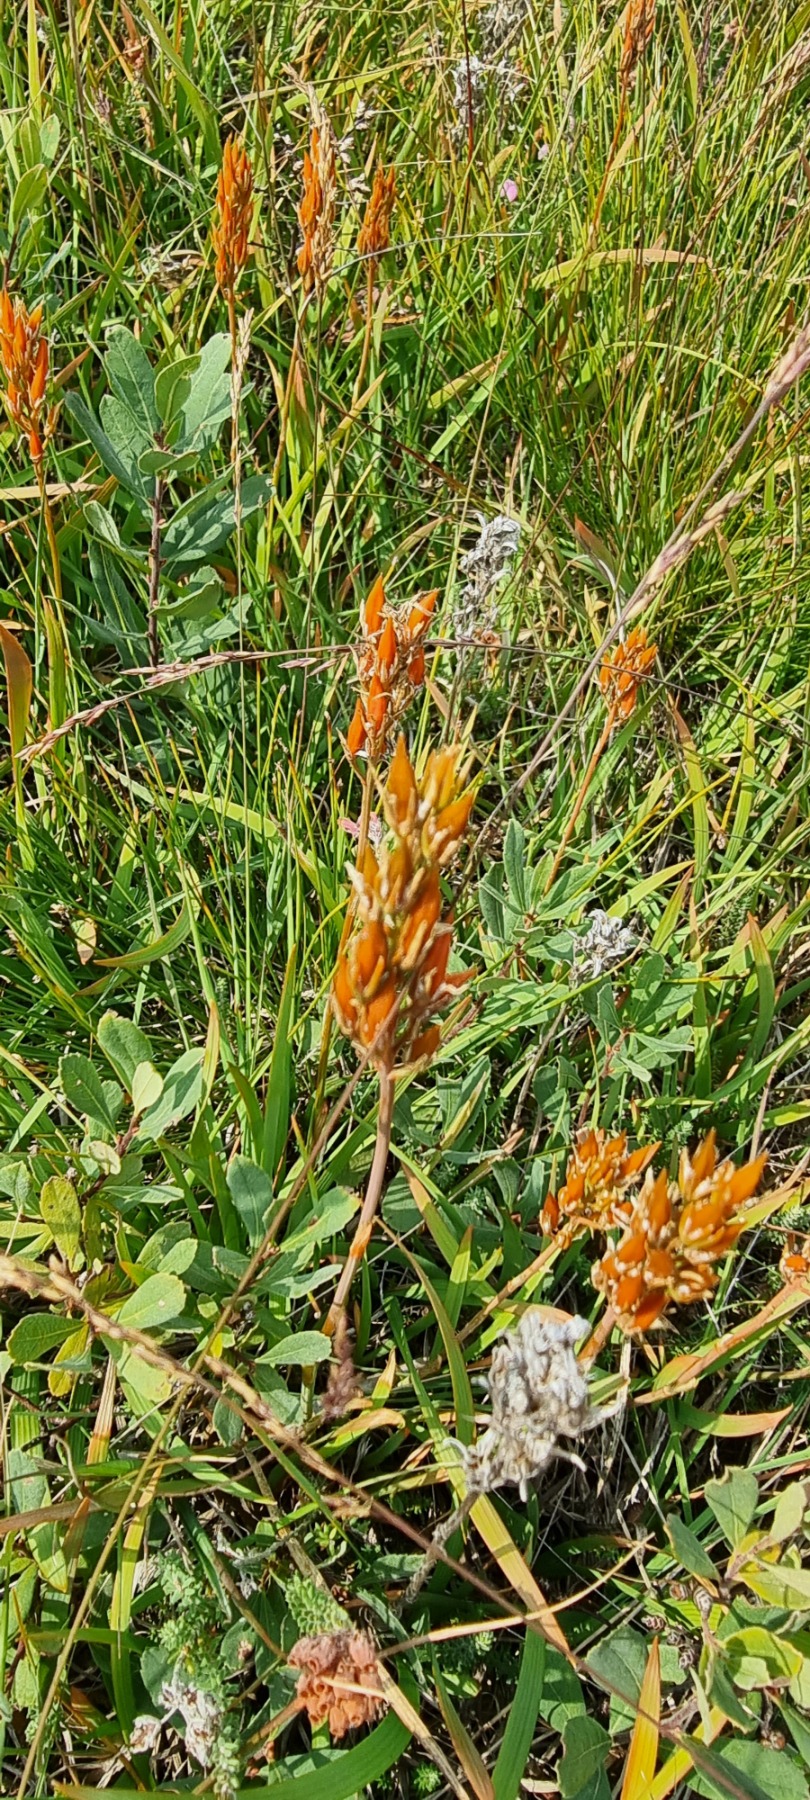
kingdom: Plantae
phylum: Tracheophyta
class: Liliopsida
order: Dioscoreales
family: Nartheciaceae
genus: Narthecium
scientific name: Narthecium ossifragum
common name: Benbræk
